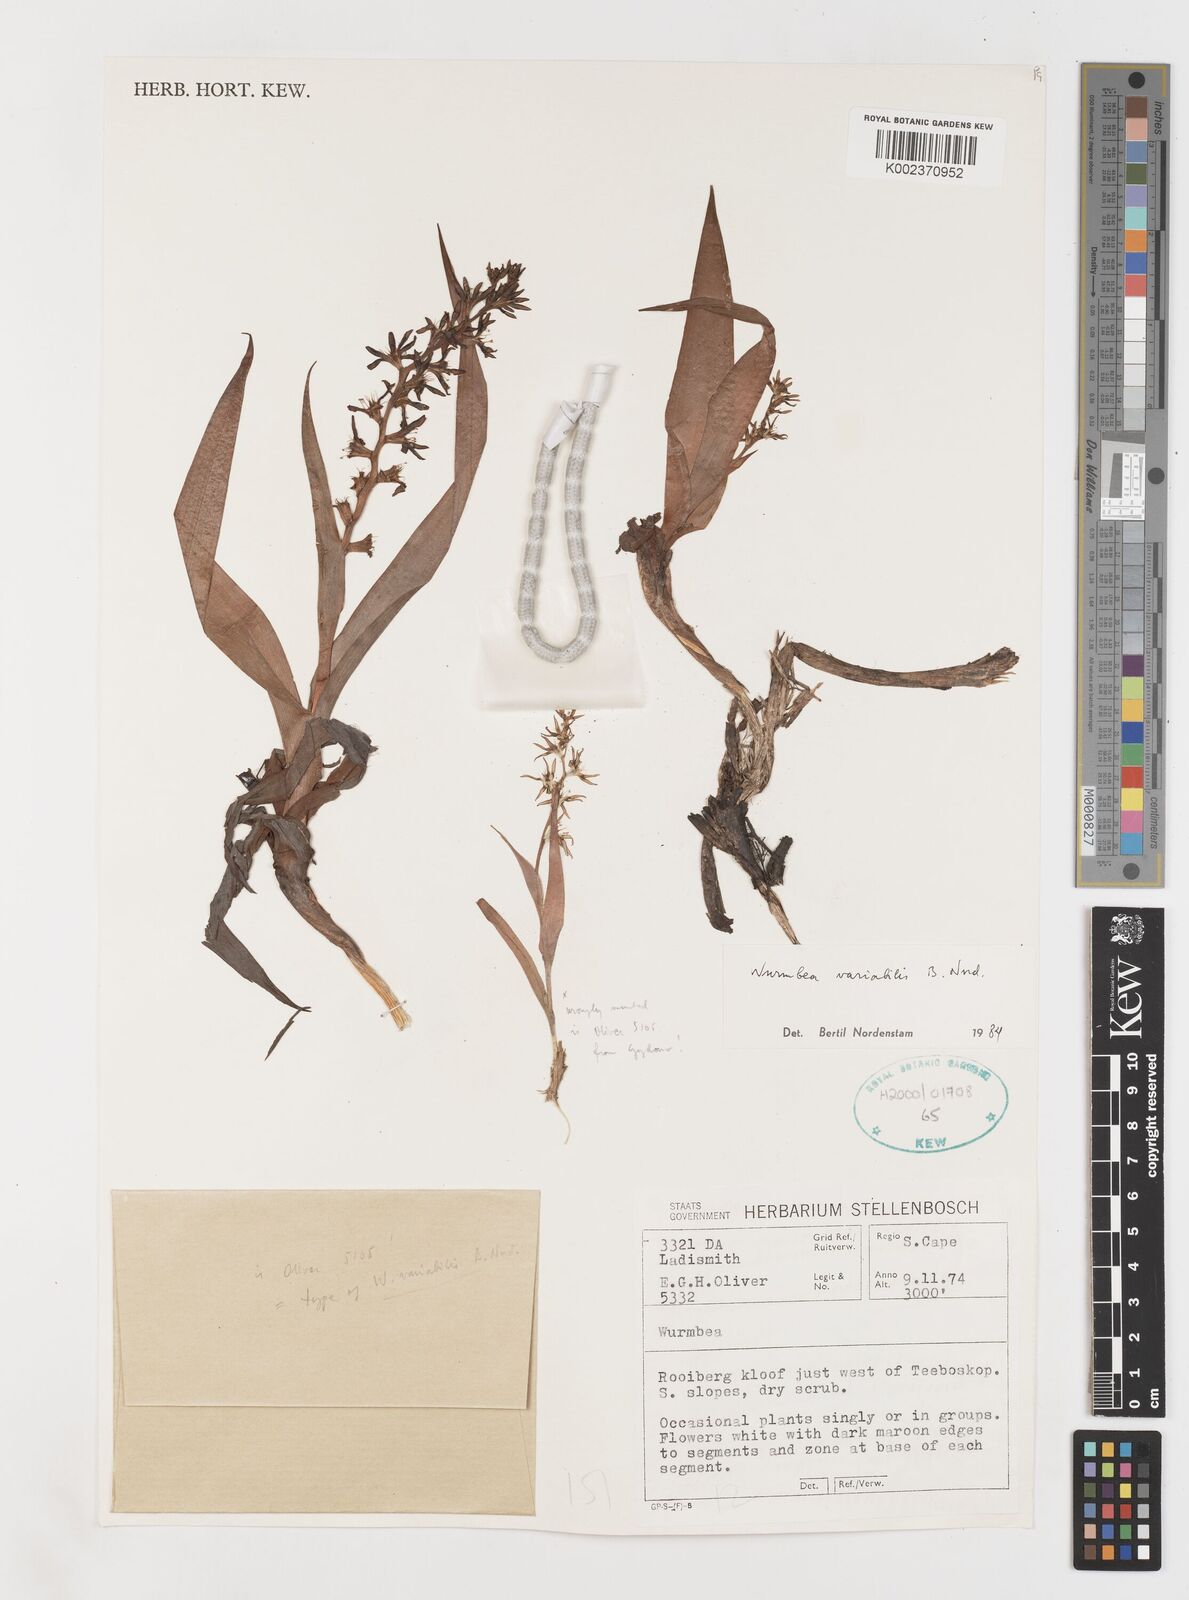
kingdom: Plantae
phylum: Tracheophyta
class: Liliopsida
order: Liliales
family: Colchicaceae
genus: Wurmbea
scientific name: Wurmbea variabilis
